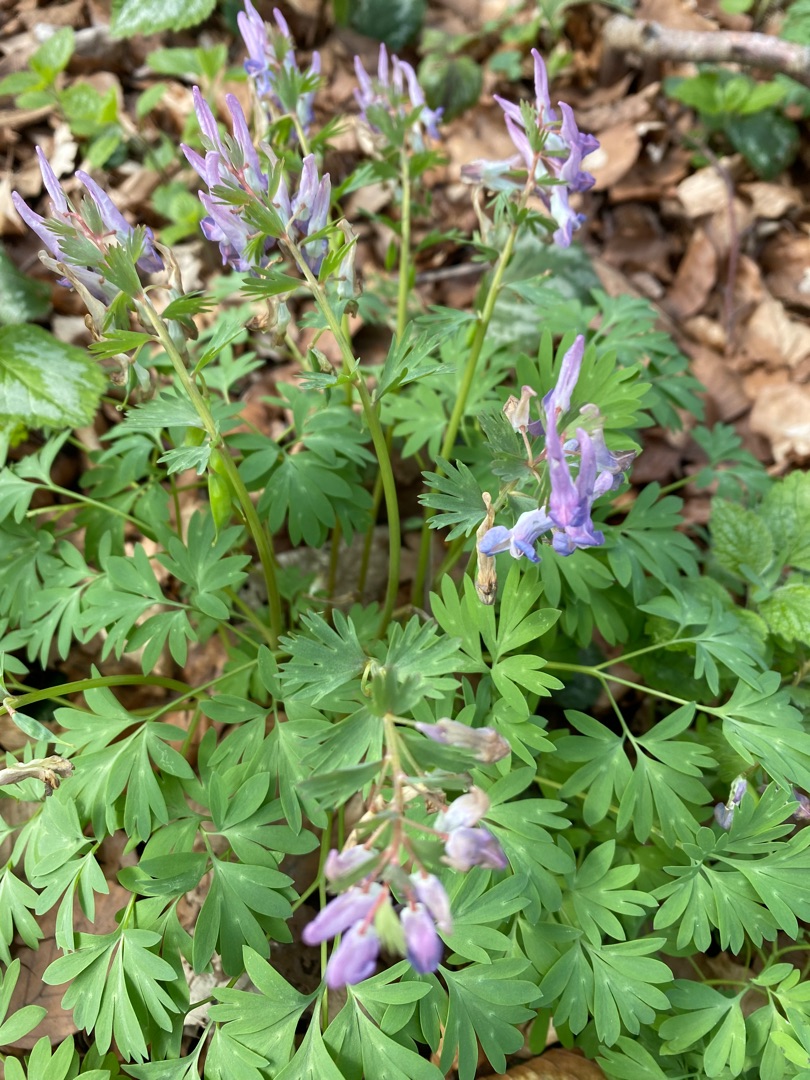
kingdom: Plantae
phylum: Tracheophyta
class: Magnoliopsida
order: Ranunculales
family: Papaveraceae
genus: Corydalis
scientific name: Corydalis solida
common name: Langstilket lærkespore
